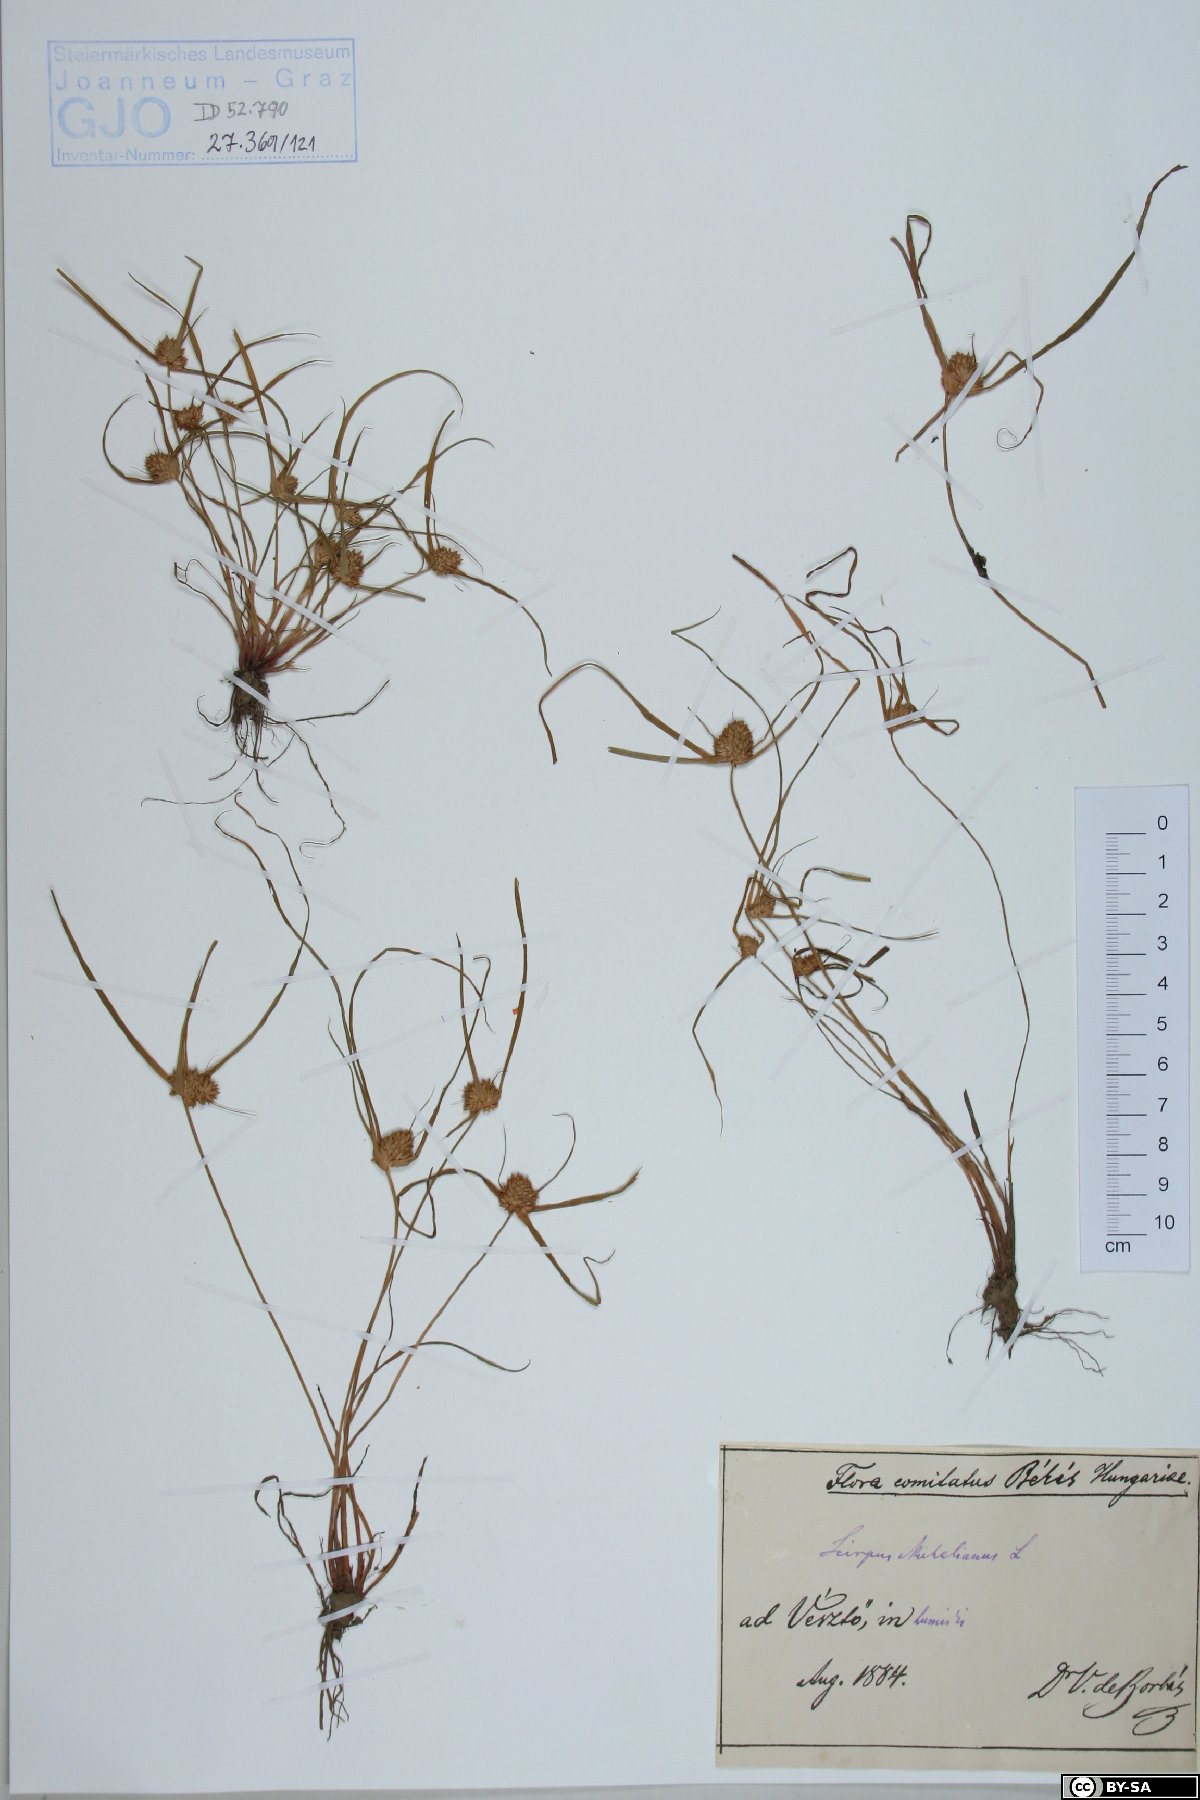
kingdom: Plantae
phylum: Tracheophyta
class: Liliopsida
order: Poales
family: Cyperaceae
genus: Cyperus
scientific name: Cyperus michelianus
